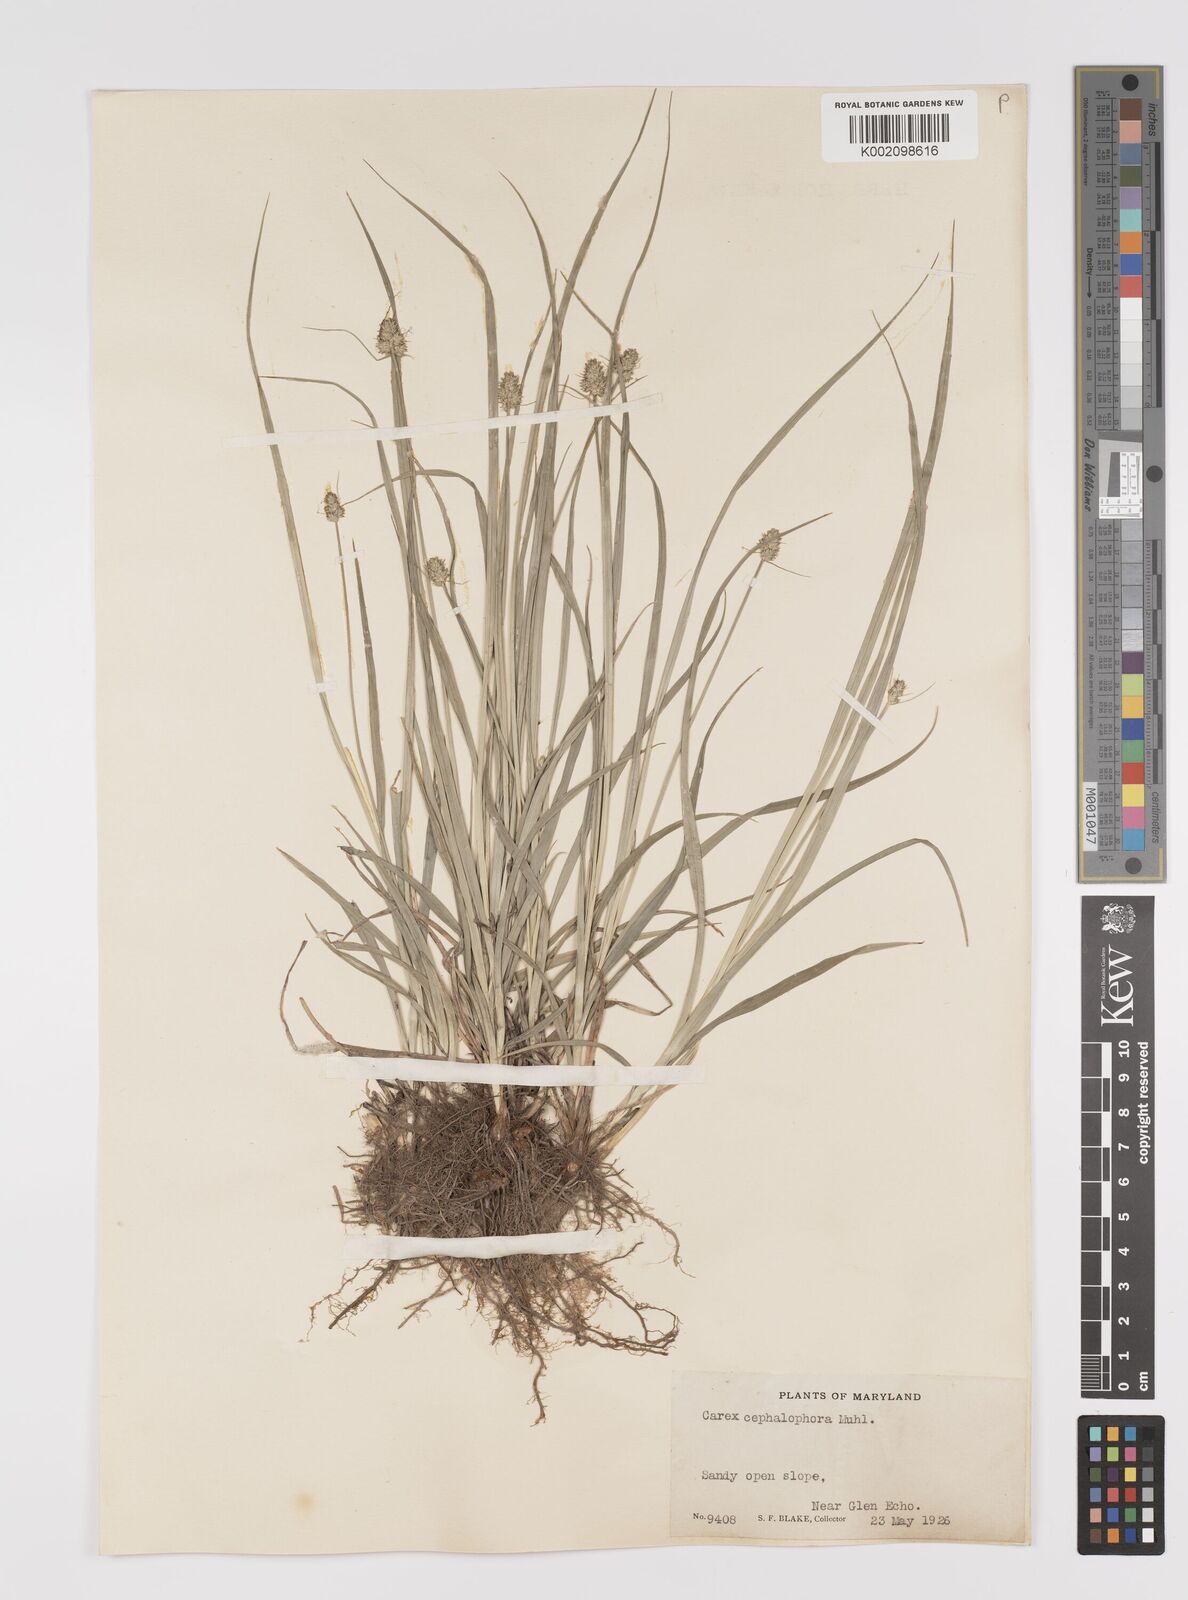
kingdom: Plantae
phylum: Tracheophyta
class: Liliopsida
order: Poales
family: Cyperaceae
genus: Carex
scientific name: Carex cephalophora
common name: Oval-headed sedge
